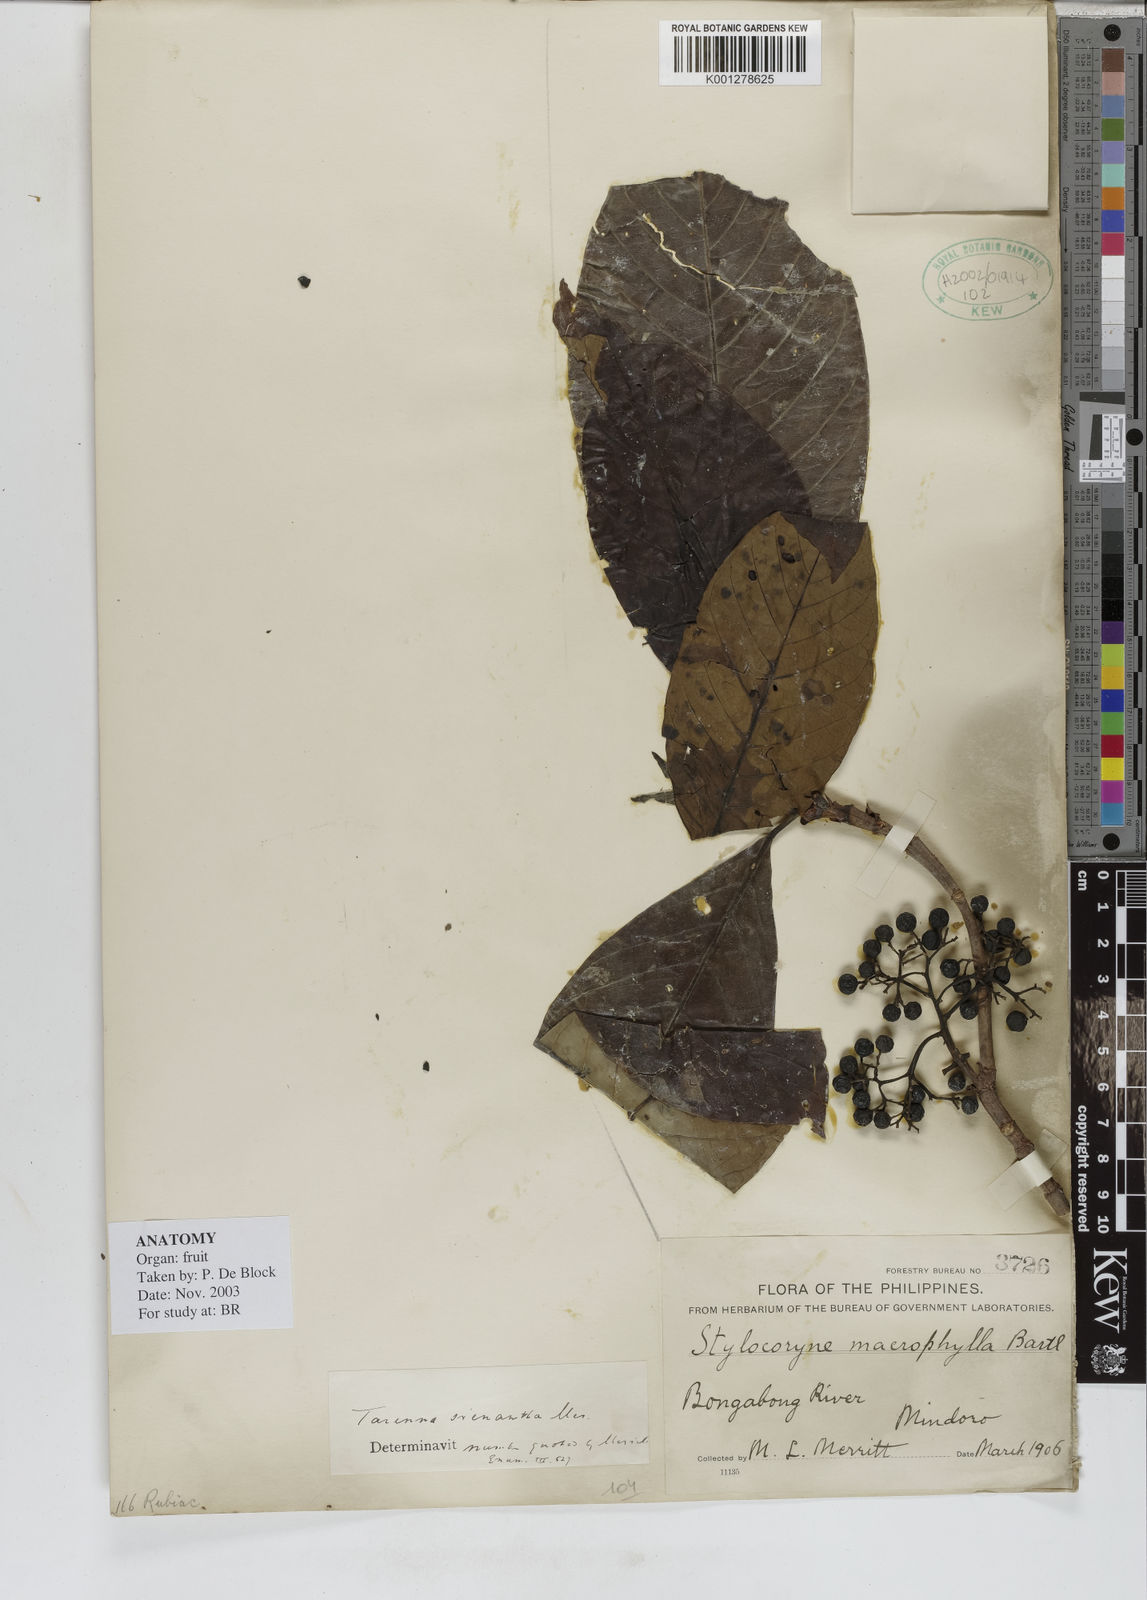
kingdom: Plantae
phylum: Tracheophyta
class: Magnoliopsida
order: Gentianales
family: Rubiaceae
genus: Tarenna
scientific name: Tarenna stenantha
